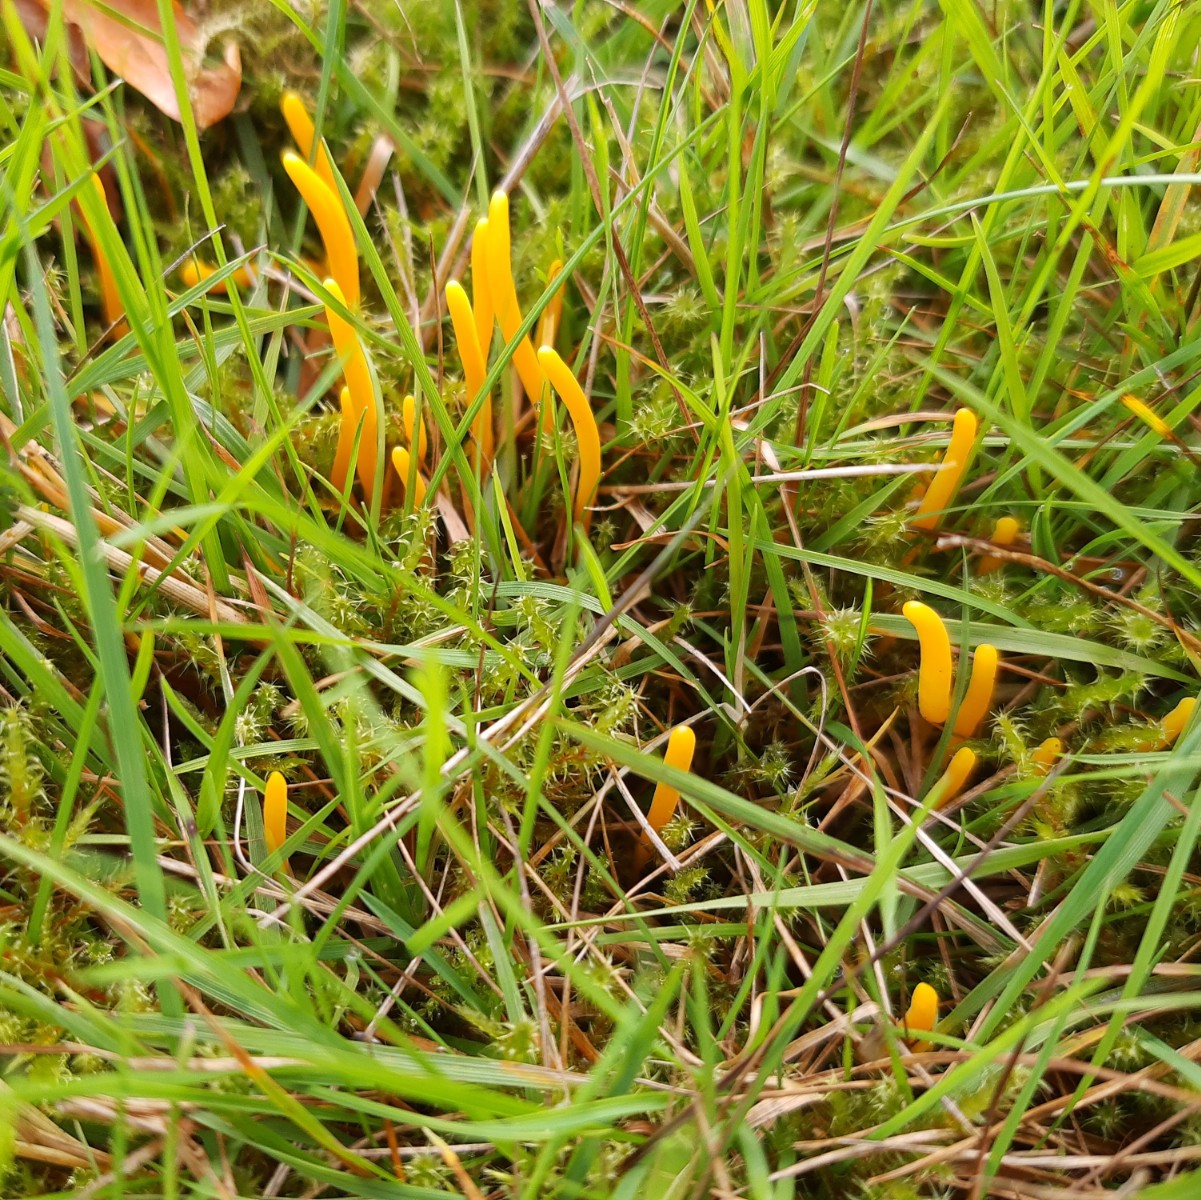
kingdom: Fungi
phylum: Basidiomycota
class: Agaricomycetes
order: Agaricales
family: Clavariaceae
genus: Clavulinopsis
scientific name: Clavulinopsis helvola
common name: orangegul køllesvamp
